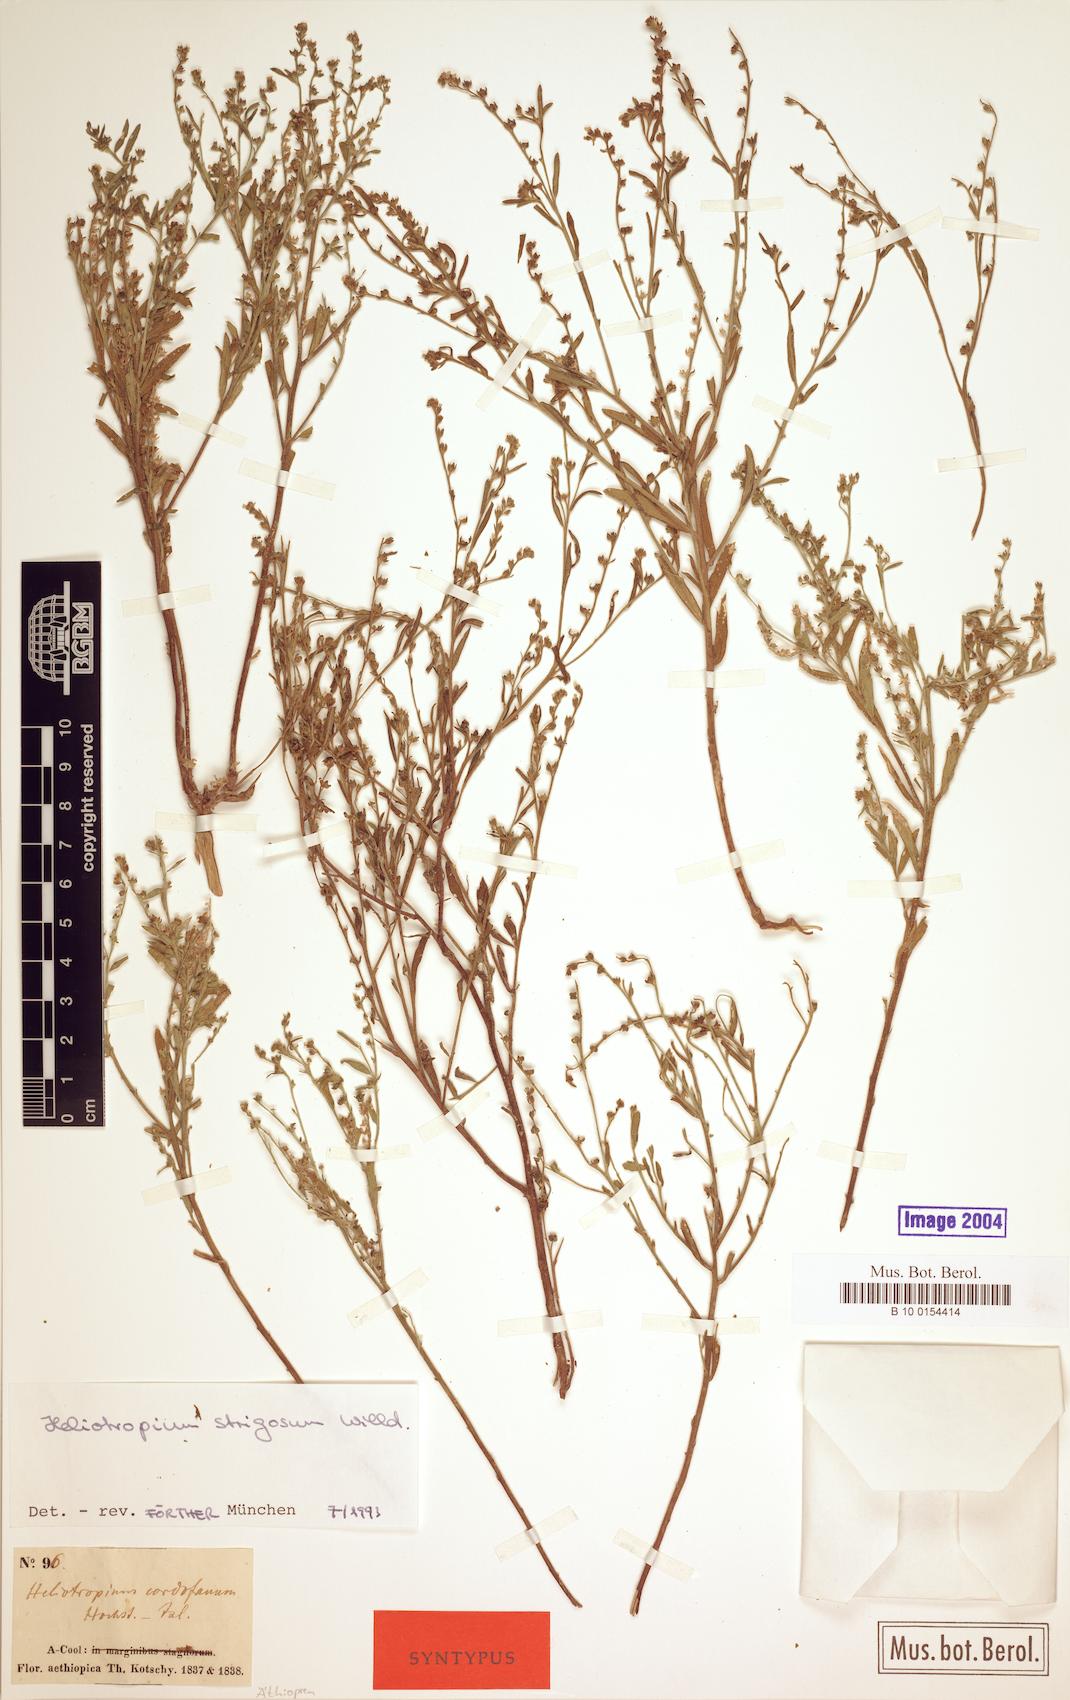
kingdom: Plantae
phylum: Tracheophyta
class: Magnoliopsida
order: Boraginales
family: Heliotropiaceae
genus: Euploca
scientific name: Euploca strigosa
